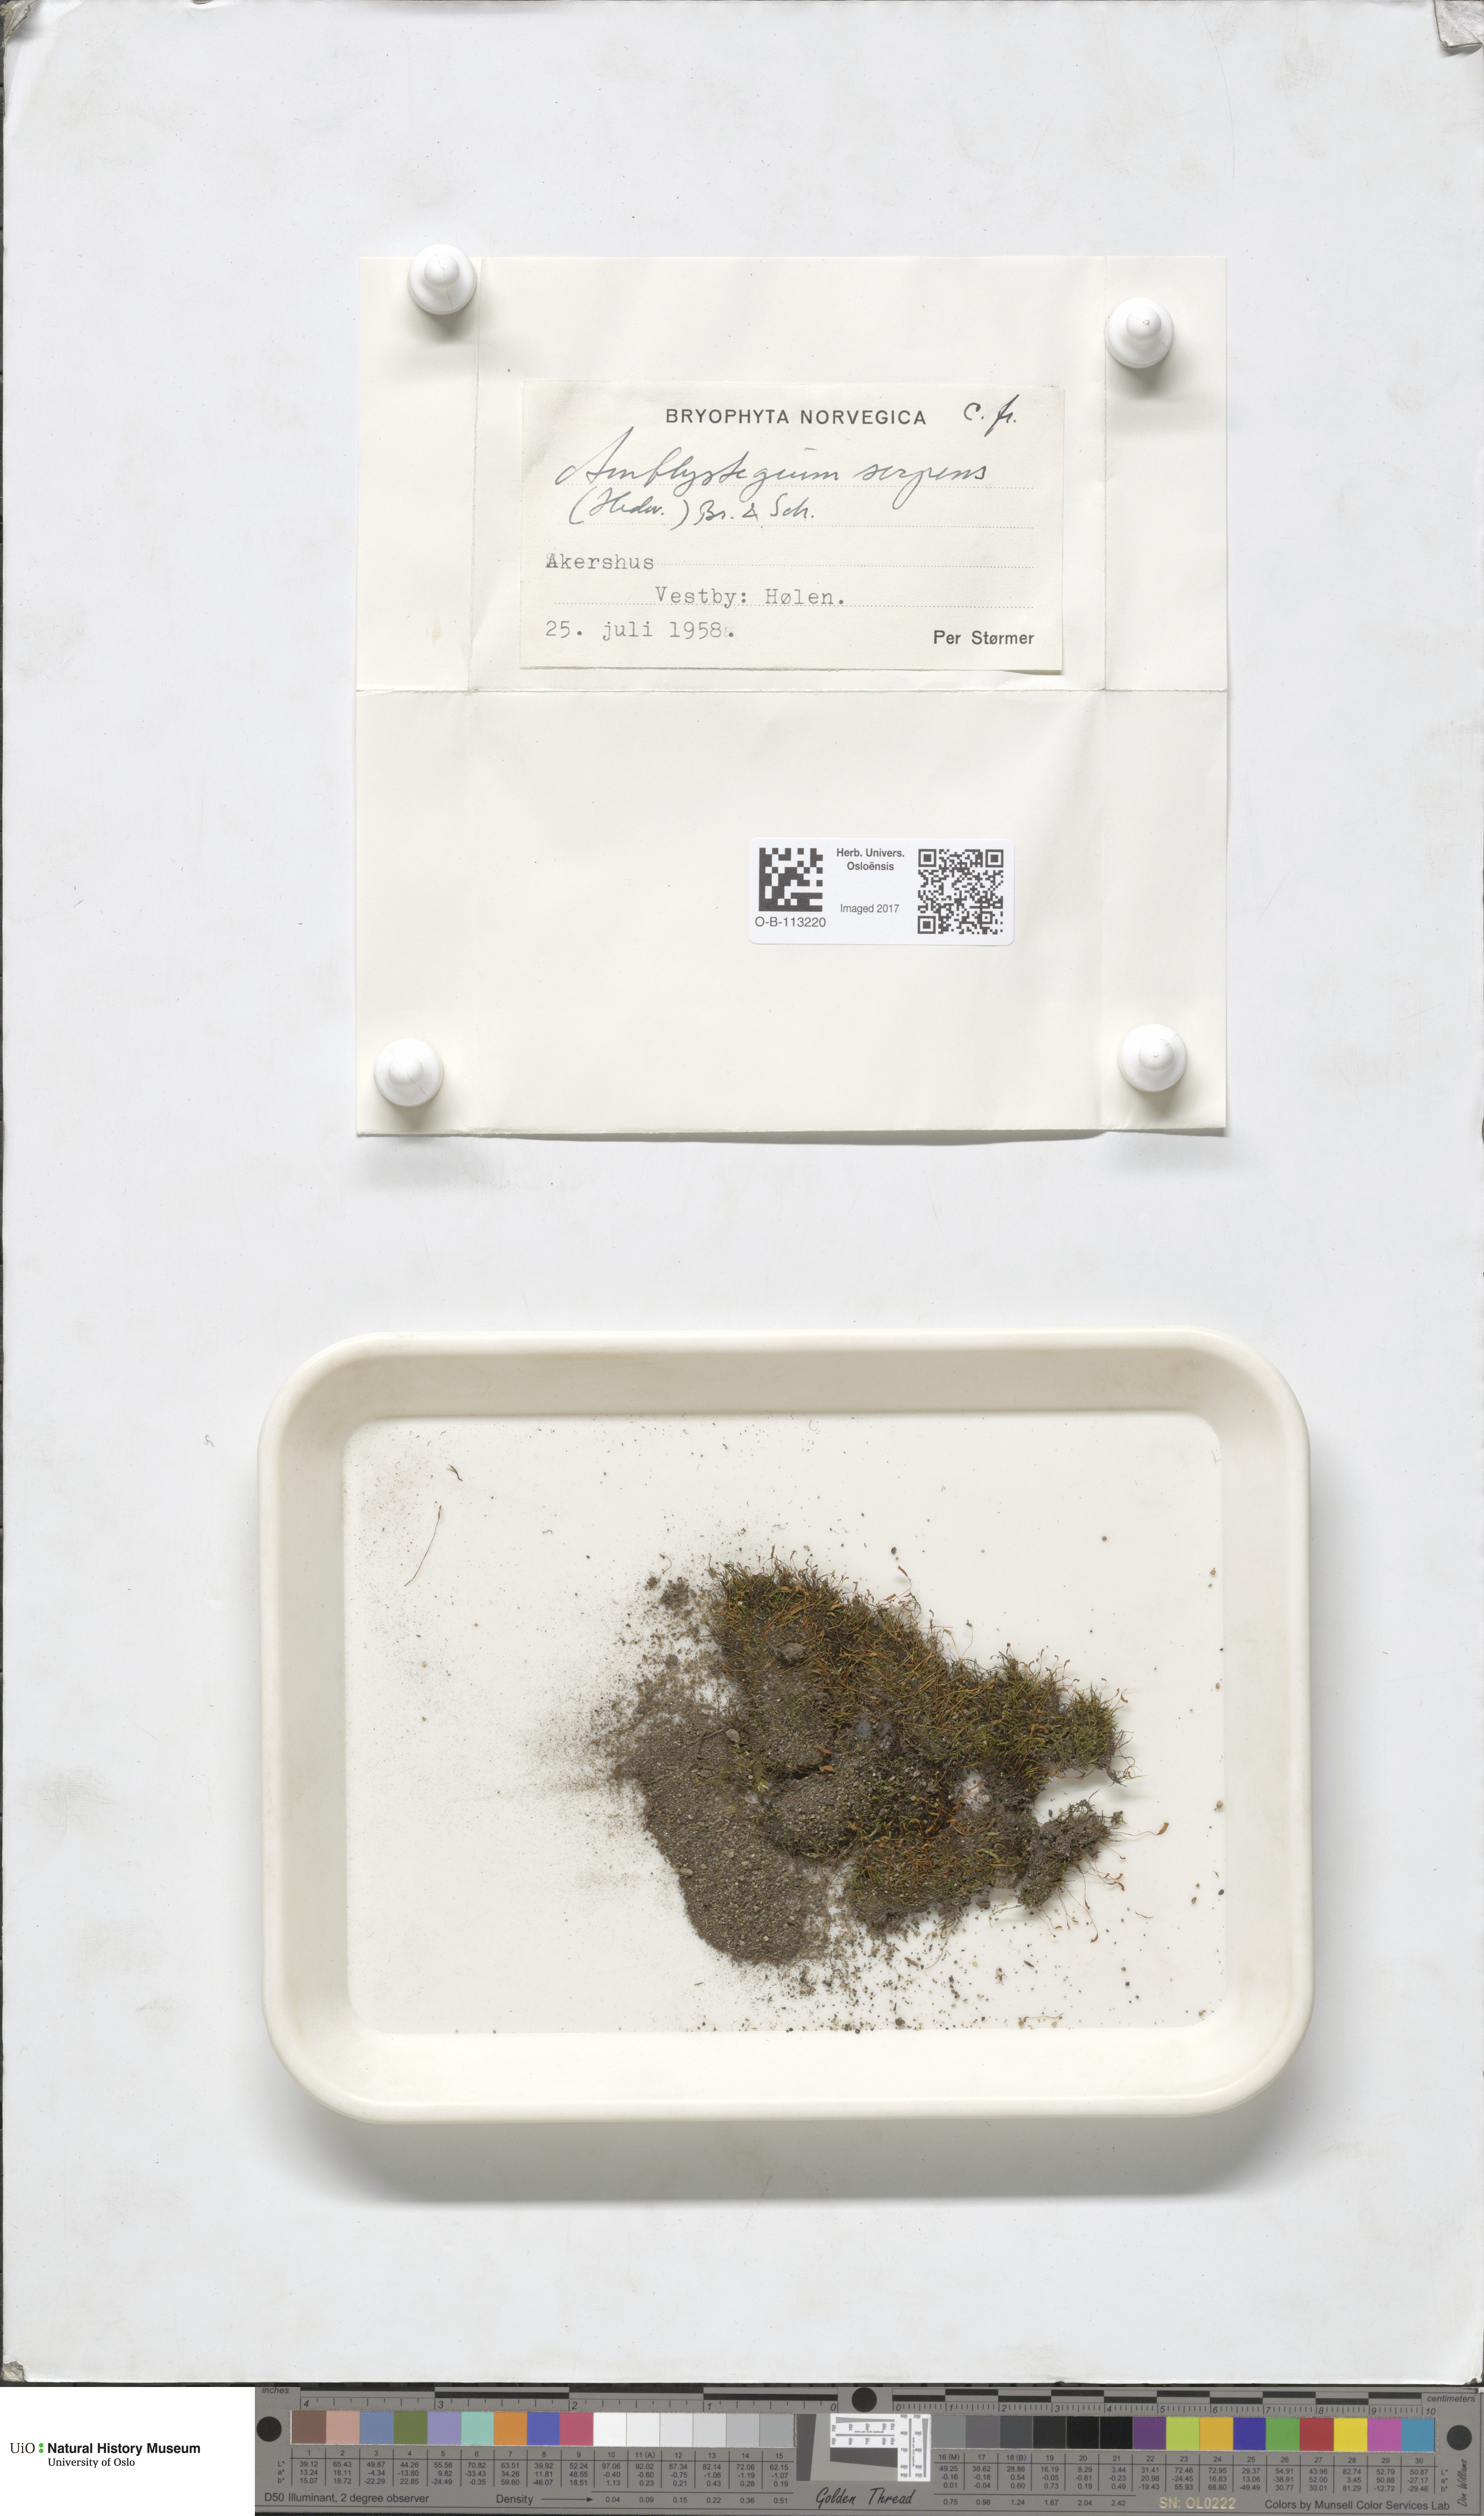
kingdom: Plantae
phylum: Bryophyta
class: Bryopsida
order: Hypnales
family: Amblystegiaceae
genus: Amblystegium
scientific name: Amblystegium serpens
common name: Jurkatzka's feather moss
